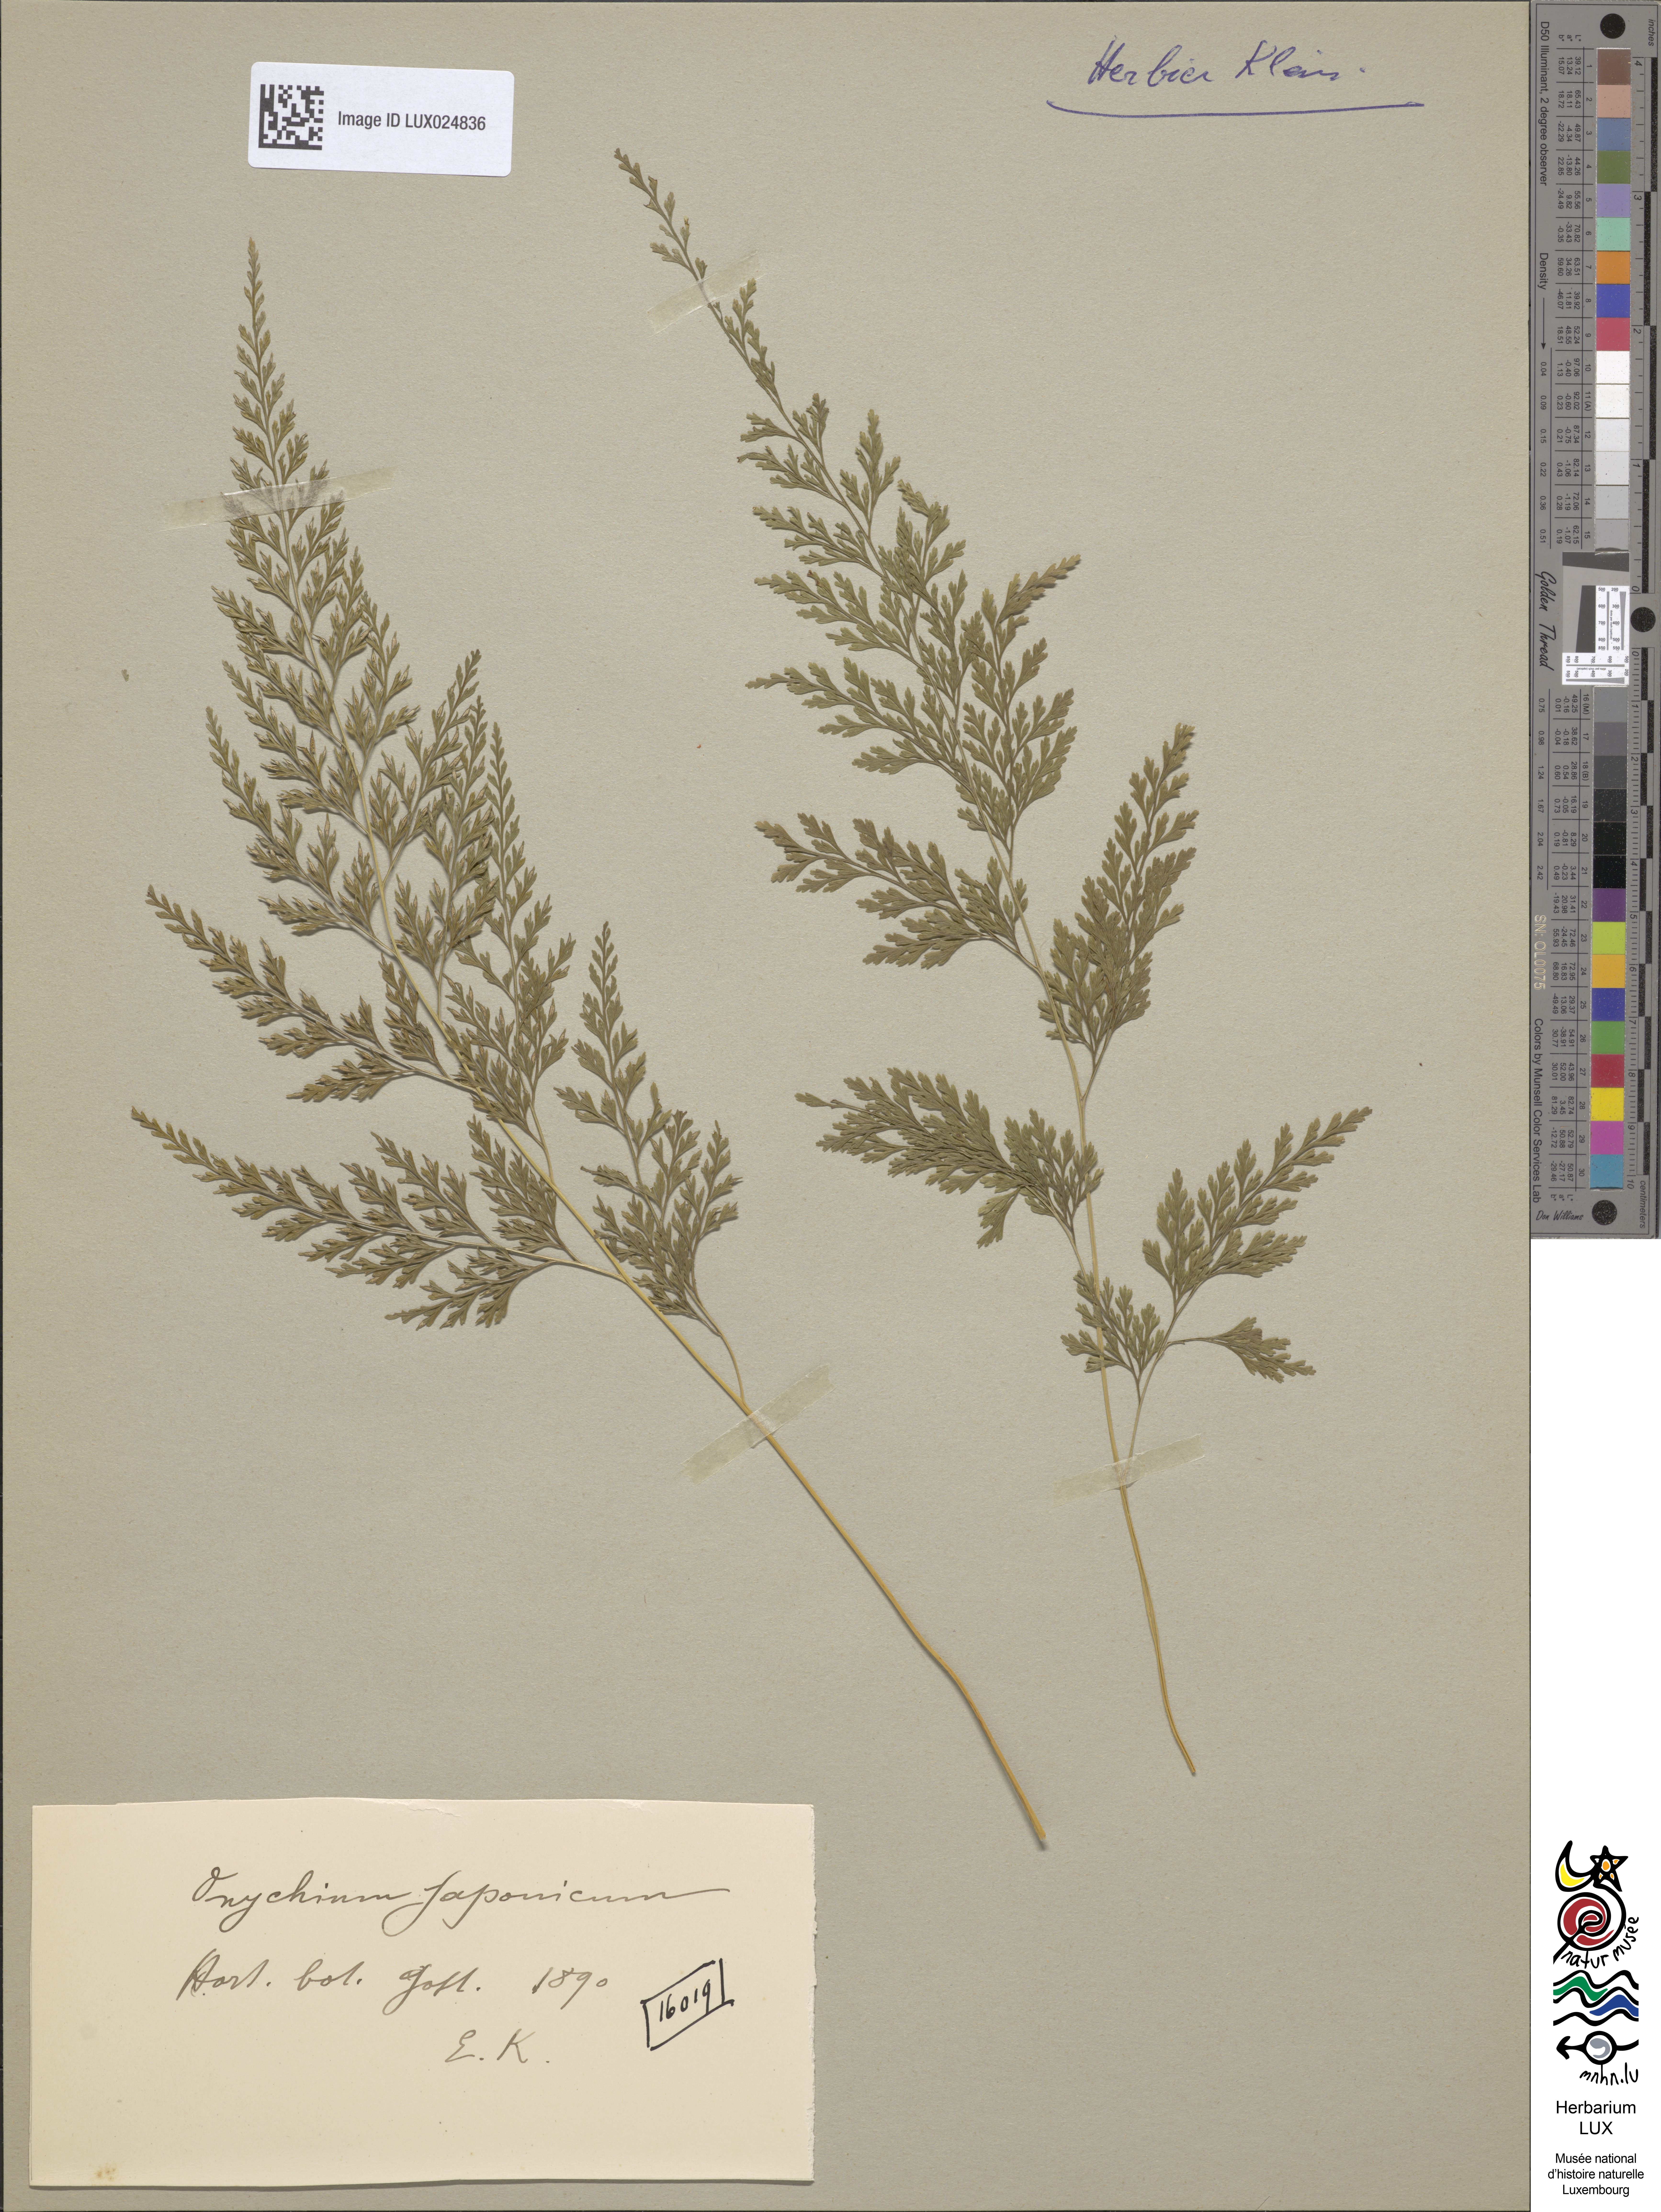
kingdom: Plantae
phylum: Tracheophyta
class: Polypodiopsida
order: Polypodiales
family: Pteridaceae
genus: Onychium
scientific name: Onychium japonicum
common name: Carrot fern
